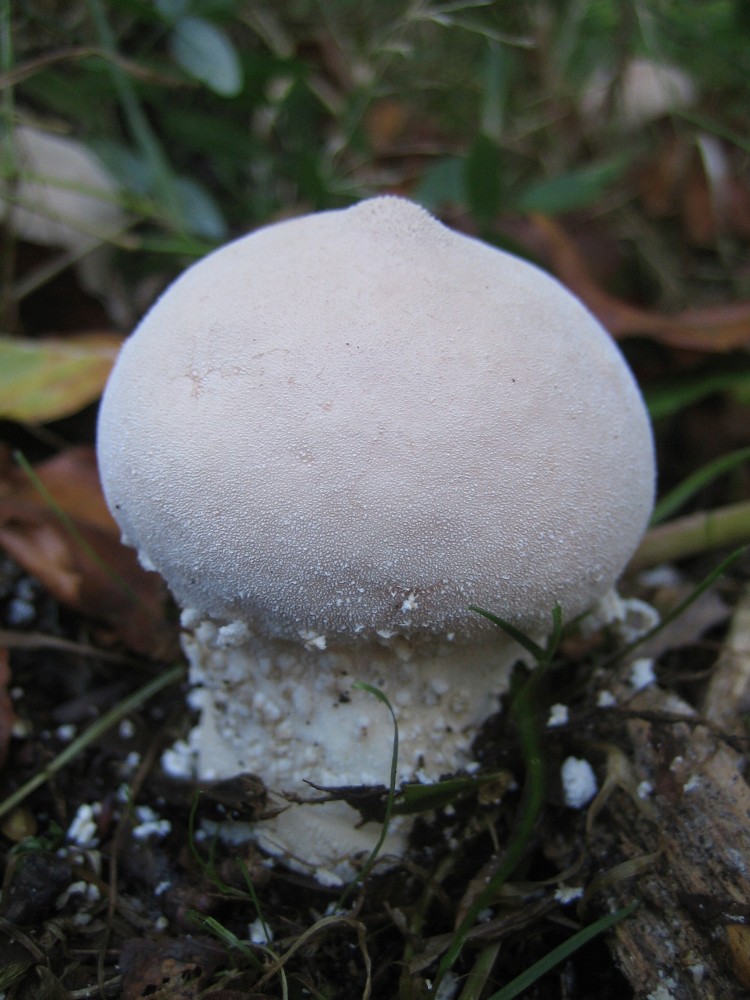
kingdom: Fungi
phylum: Basidiomycota
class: Agaricomycetes
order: Agaricales
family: Lycoperdaceae
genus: Lycoperdon
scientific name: Lycoperdon mammiforme
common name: rosa støvbold
